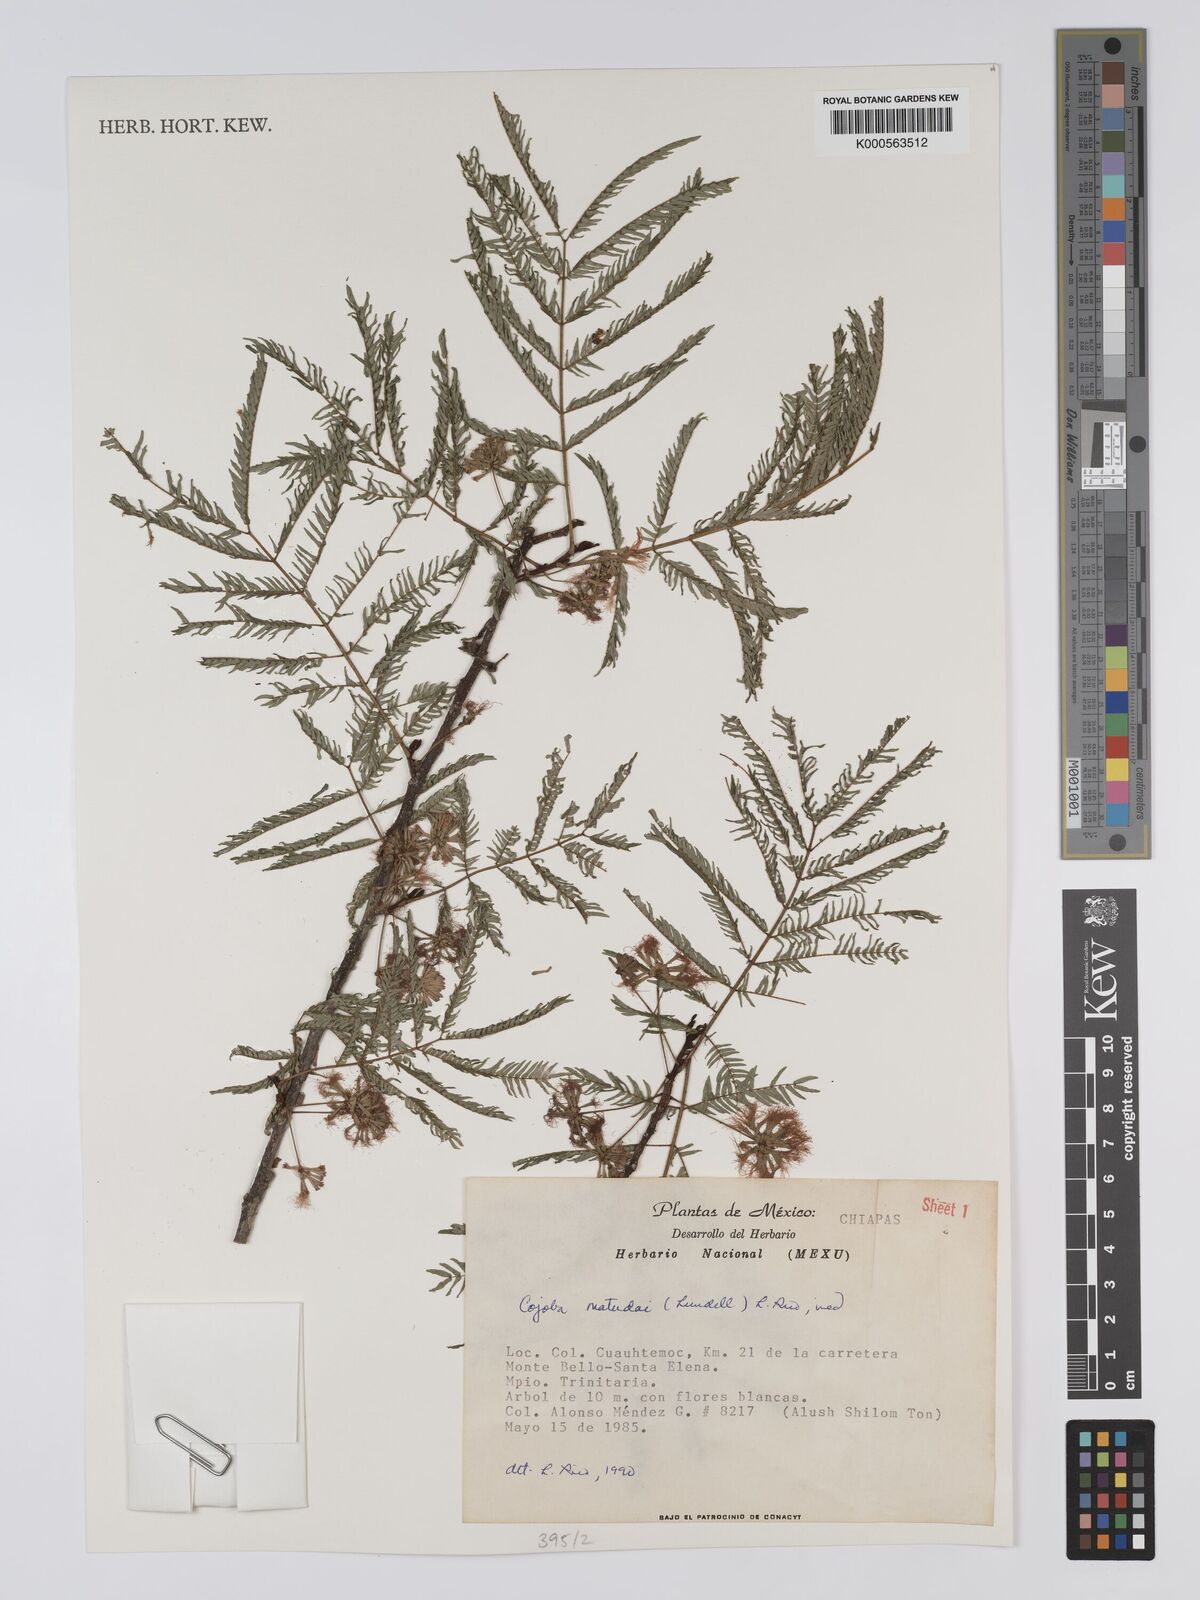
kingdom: Plantae
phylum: Tracheophyta
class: Magnoliopsida
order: Fabales
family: Fabaceae
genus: Cojoba
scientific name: Cojoba arborea
